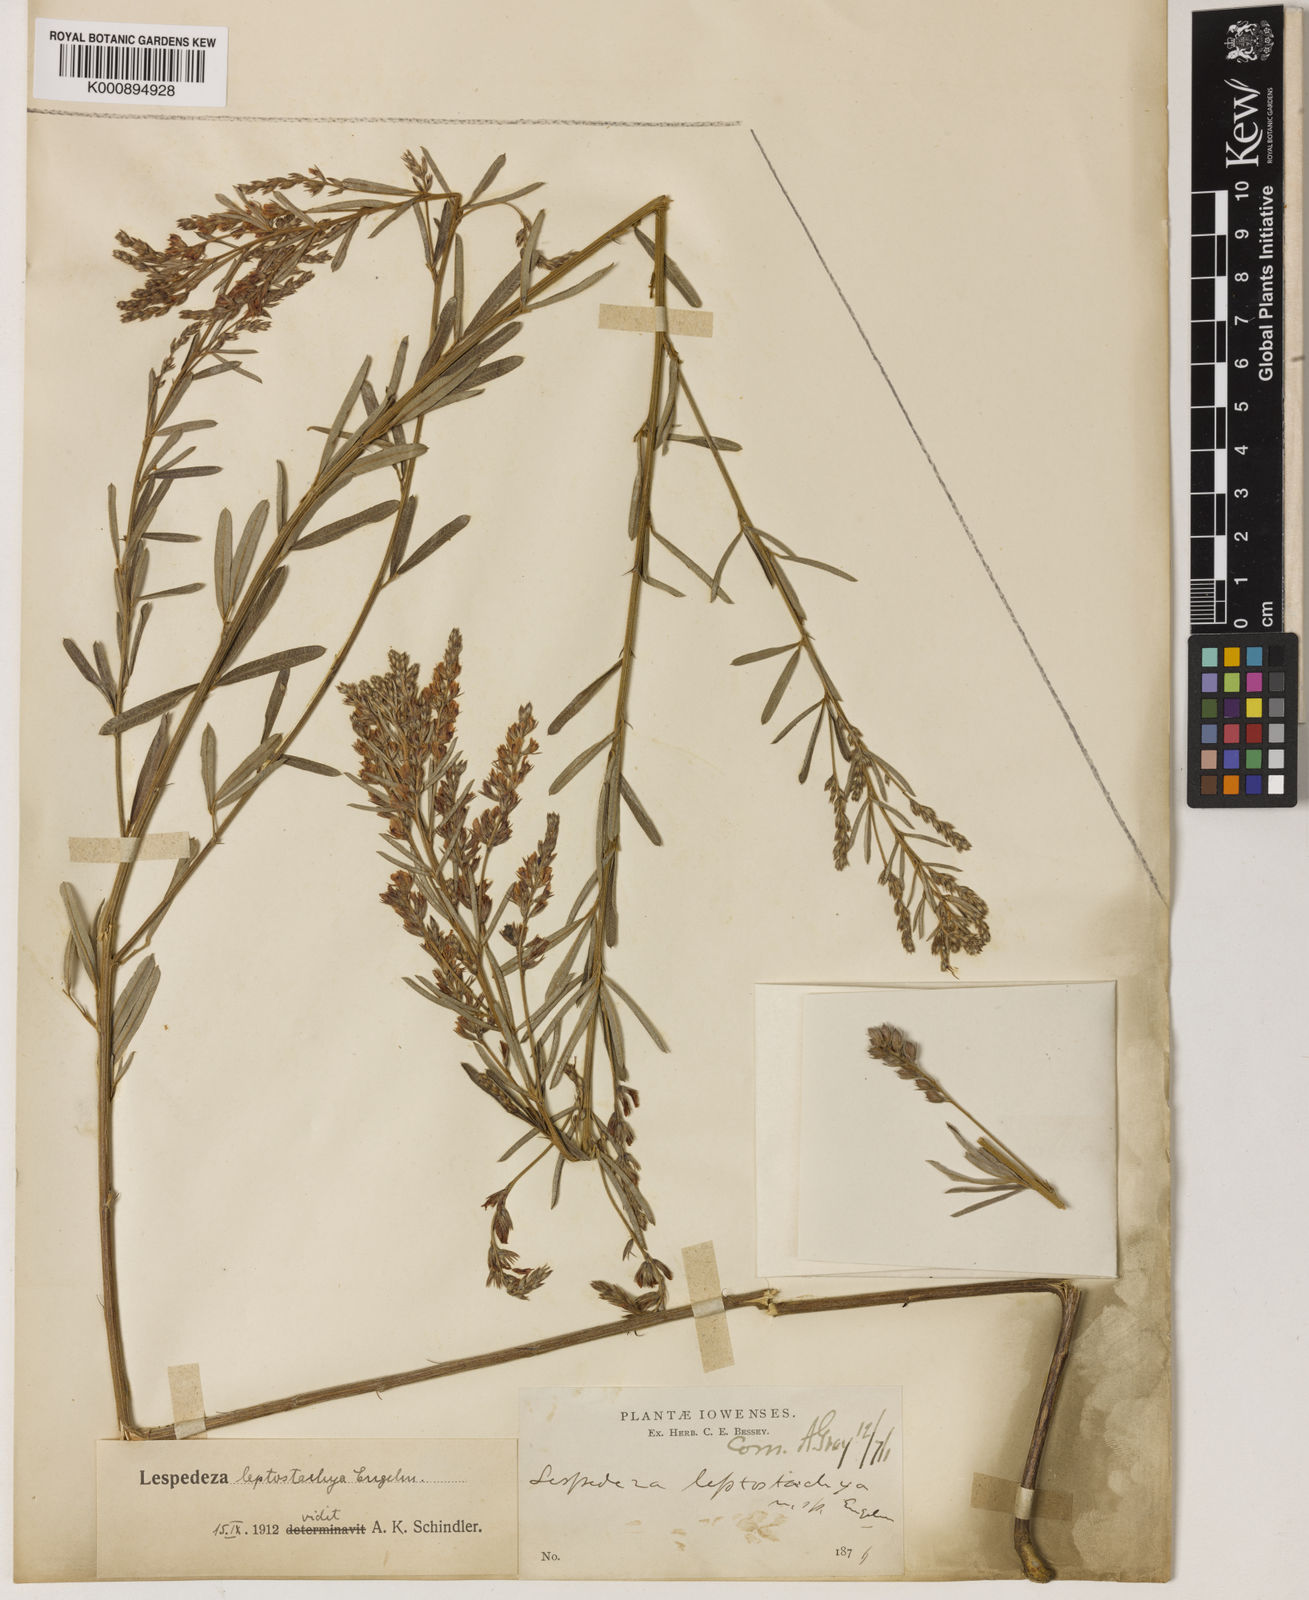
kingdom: Plantae
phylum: Tracheophyta
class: Magnoliopsida
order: Fabales
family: Fabaceae
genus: Lespedeza
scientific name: Lespedeza hirta
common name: Hairy lespedeza
